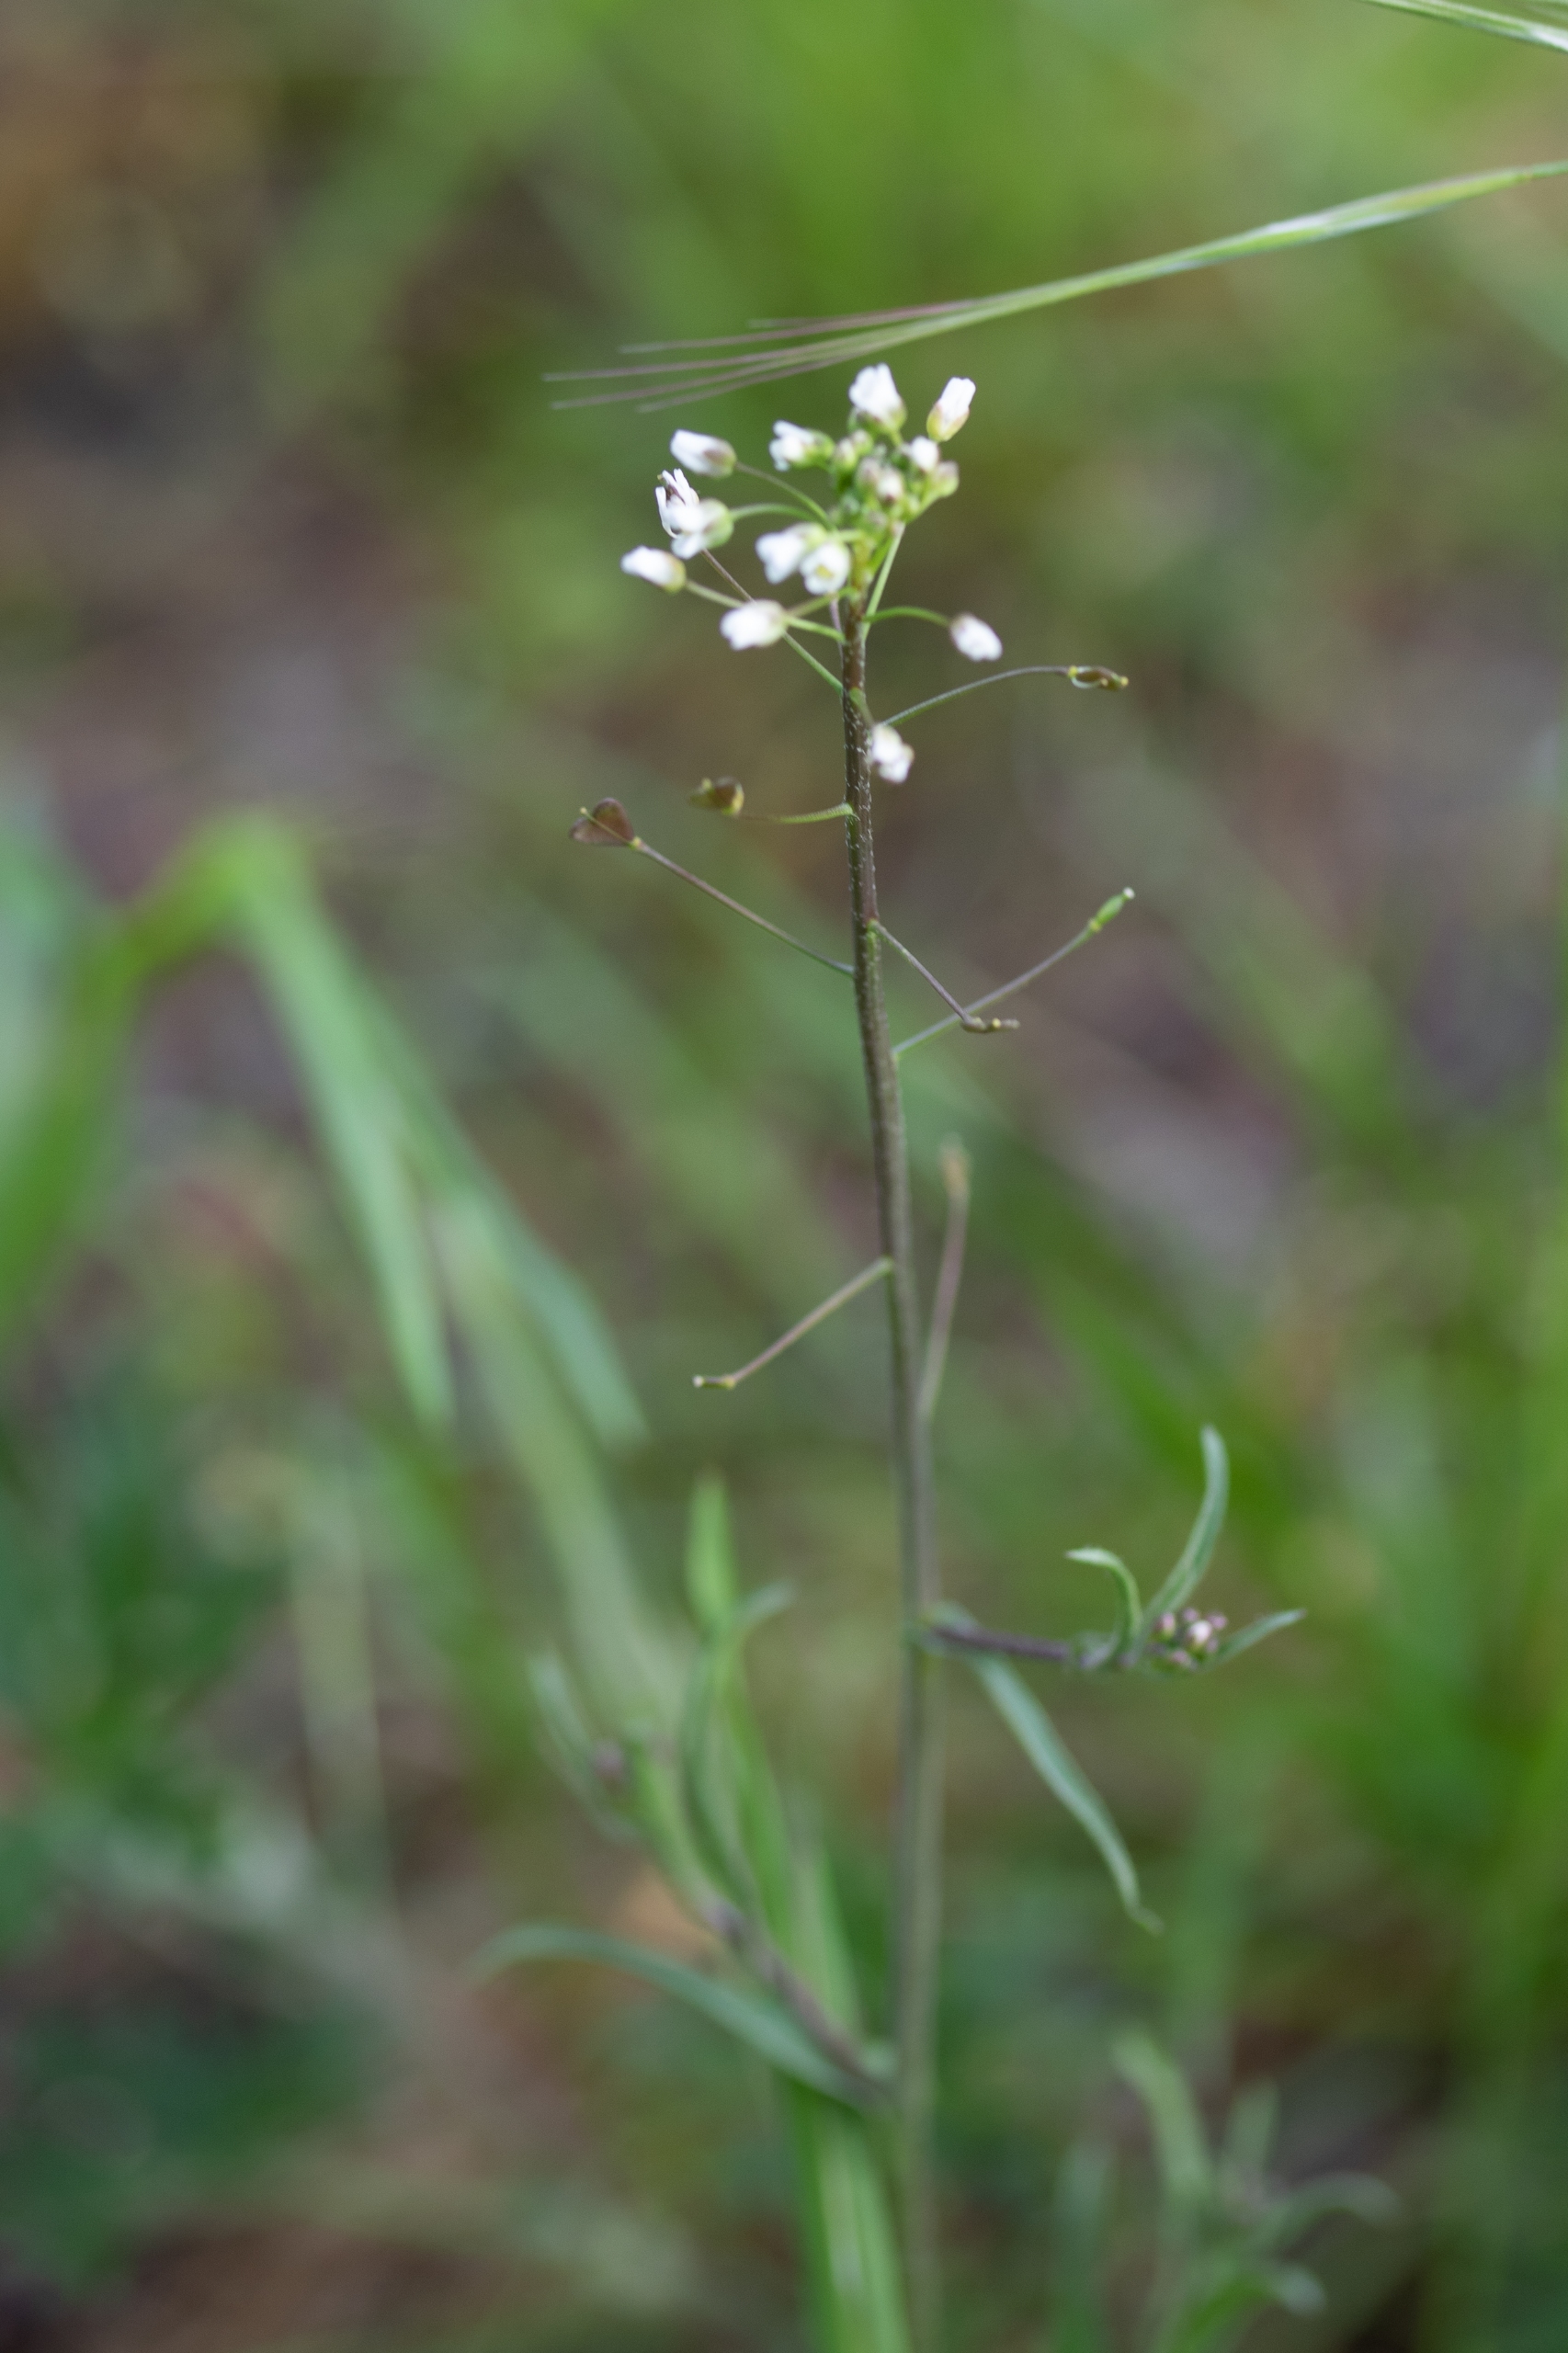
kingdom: Plantae
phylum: Tracheophyta
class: Magnoliopsida
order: Brassicales
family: Brassicaceae
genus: Capsella
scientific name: Capsella bursa-pastoris
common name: Hyrdetaske
